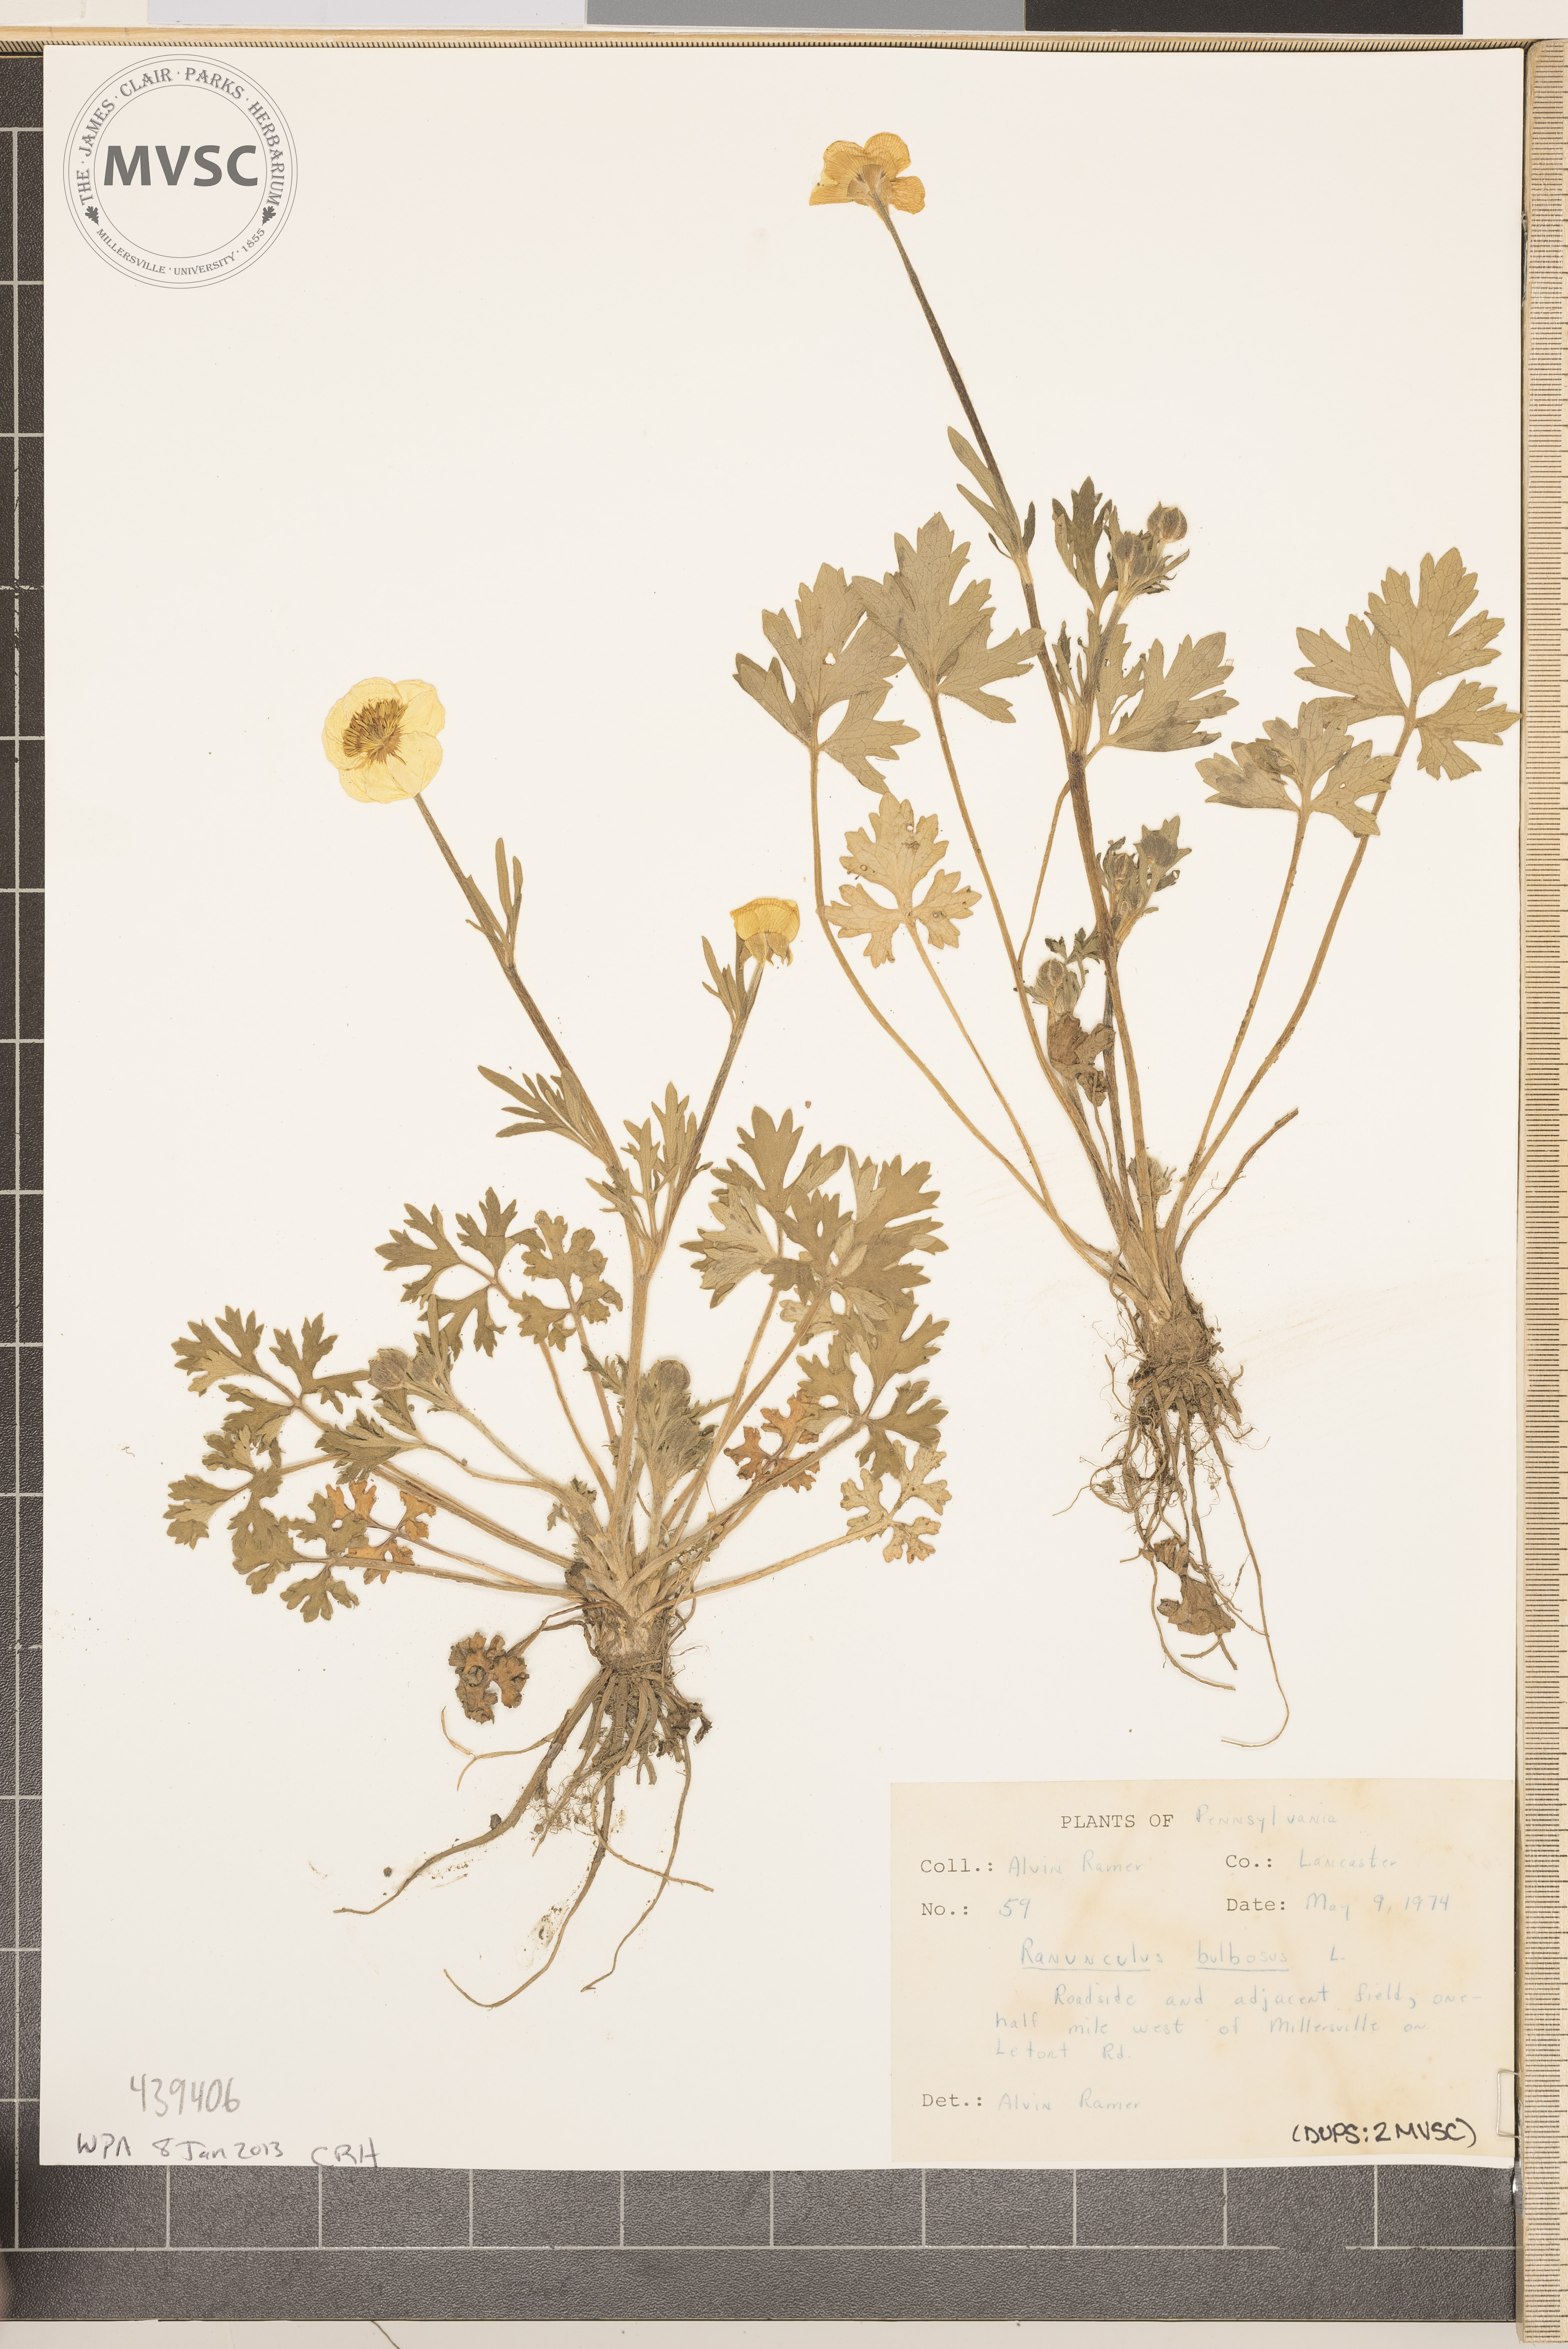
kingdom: Plantae
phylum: Tracheophyta
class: Magnoliopsida
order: Ranunculales
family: Ranunculaceae
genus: Ranunculus
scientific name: Ranunculus bulbosus
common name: Bulbous buttercup
